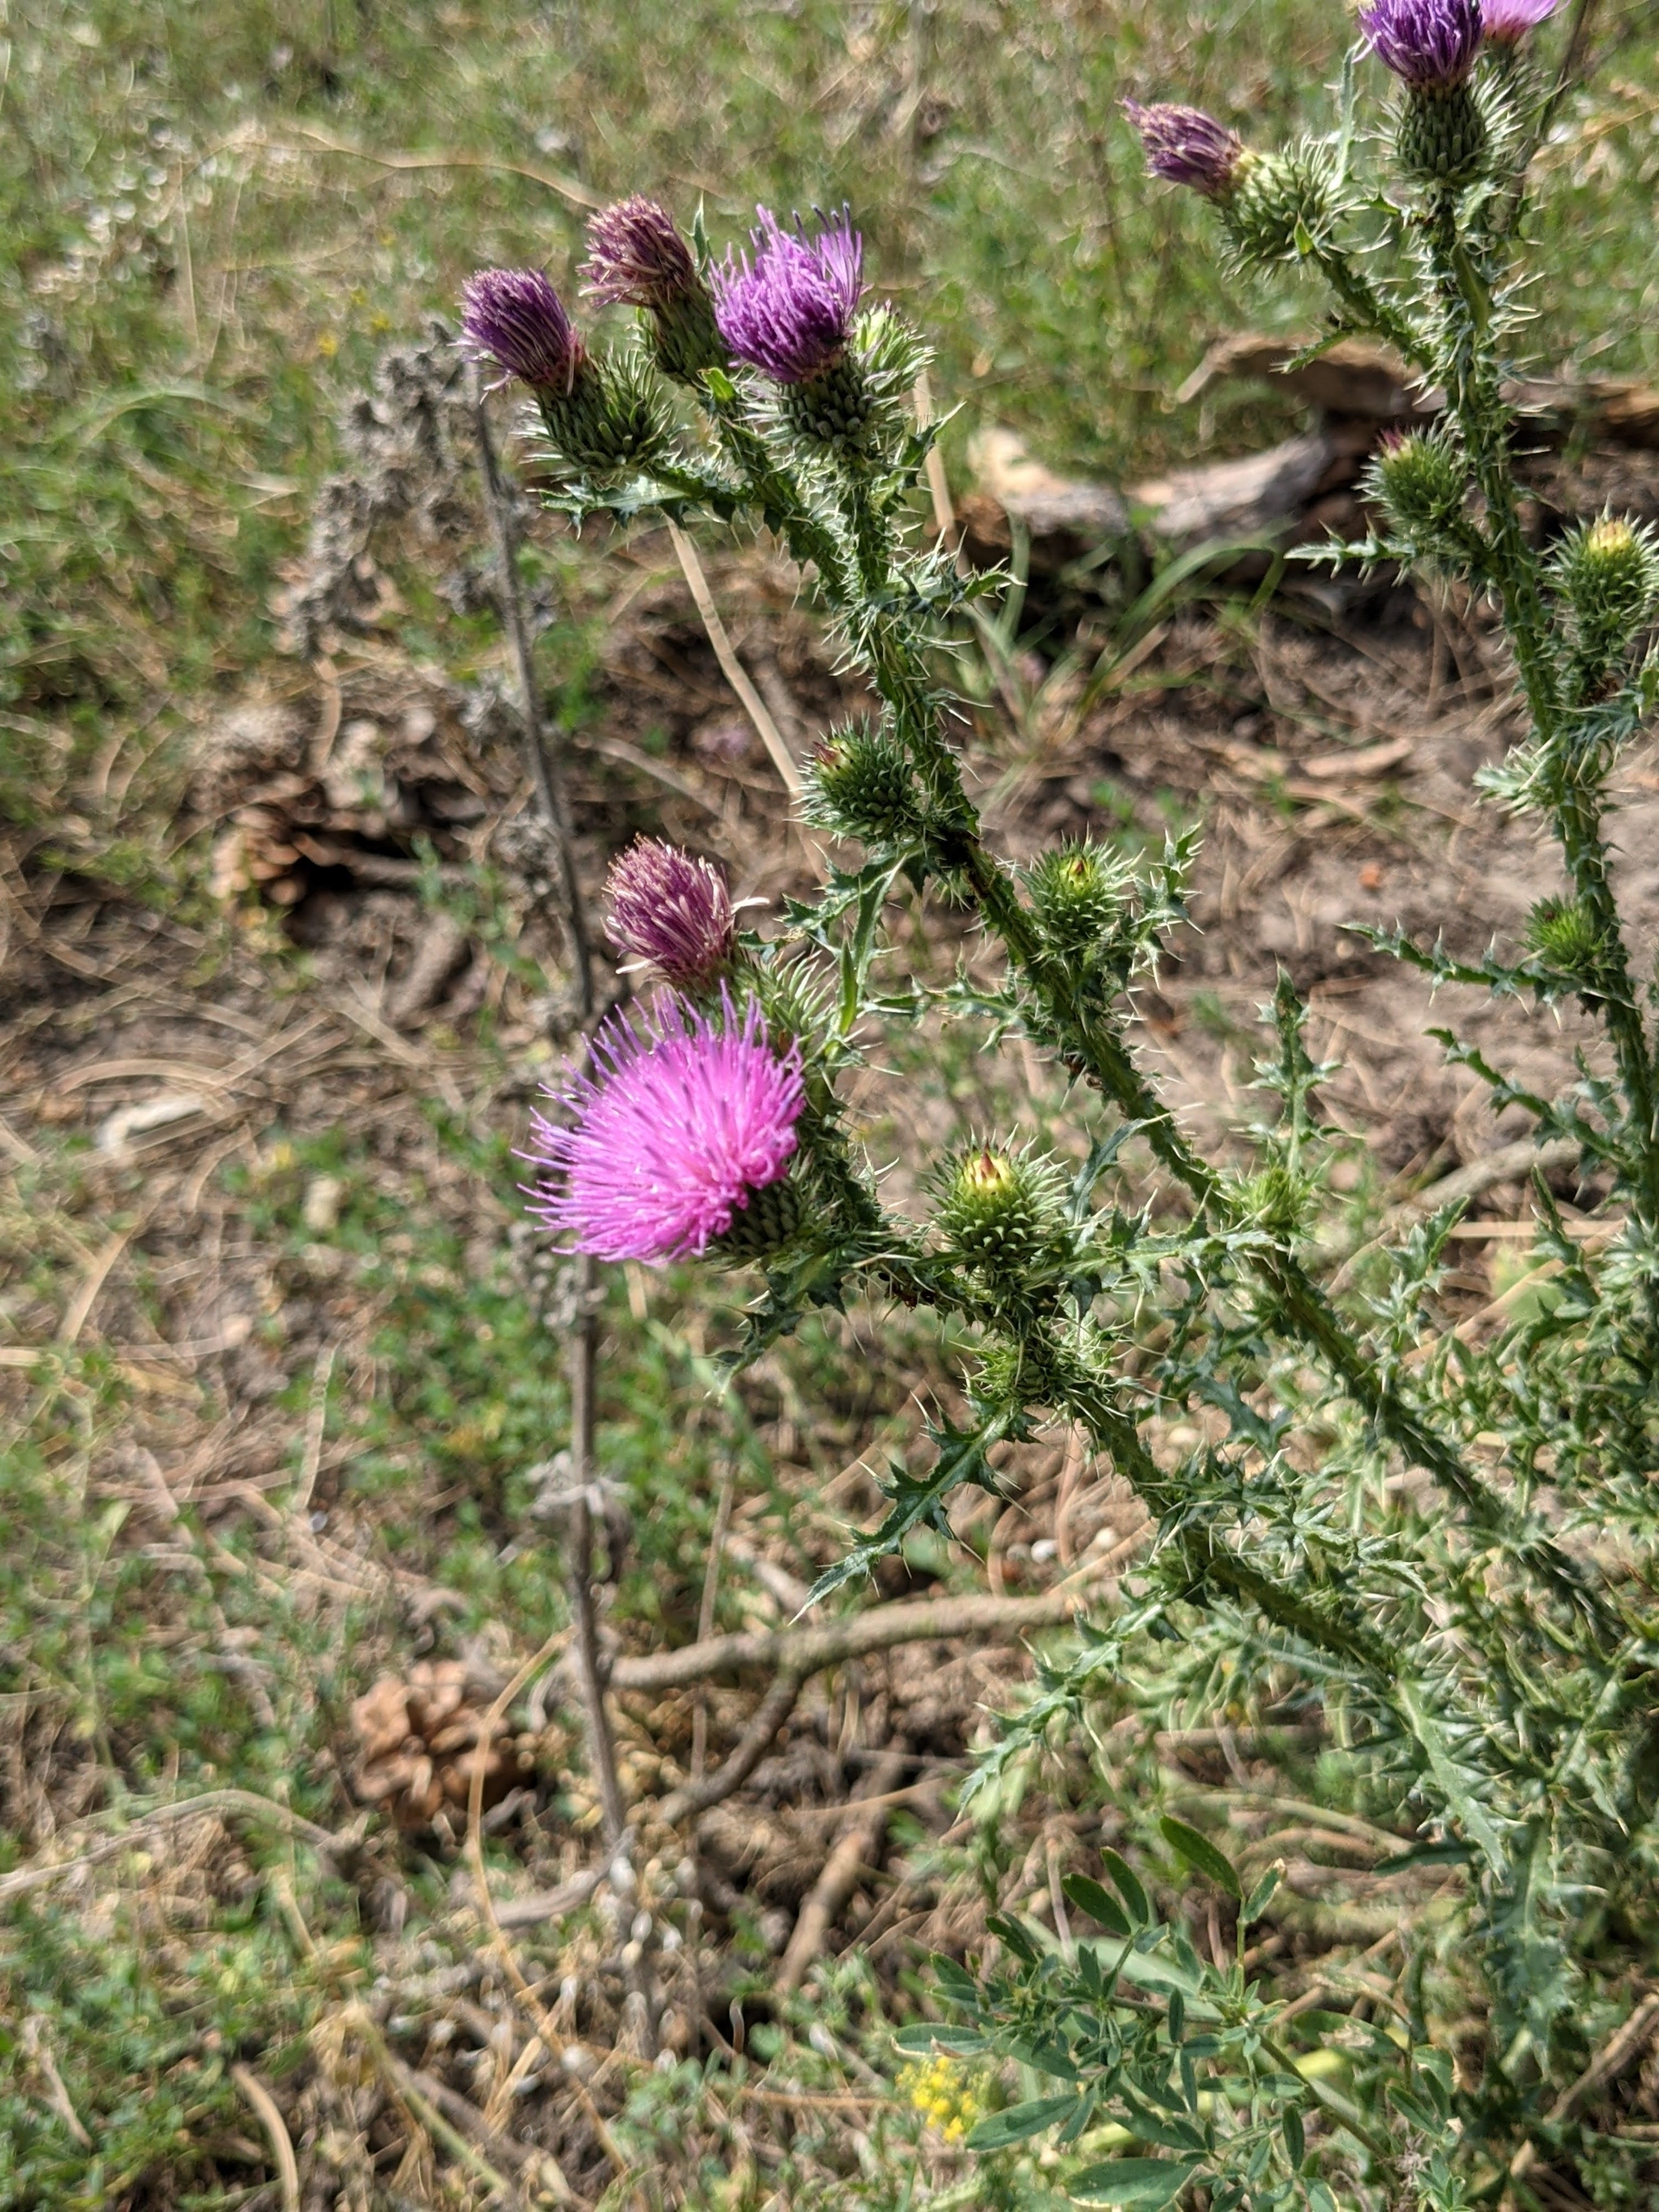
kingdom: Plantae
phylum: Tracheophyta
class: Magnoliopsida
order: Asterales
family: Asteraceae
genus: Carduus
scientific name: Carduus acanthoides
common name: Tornet tidsel
